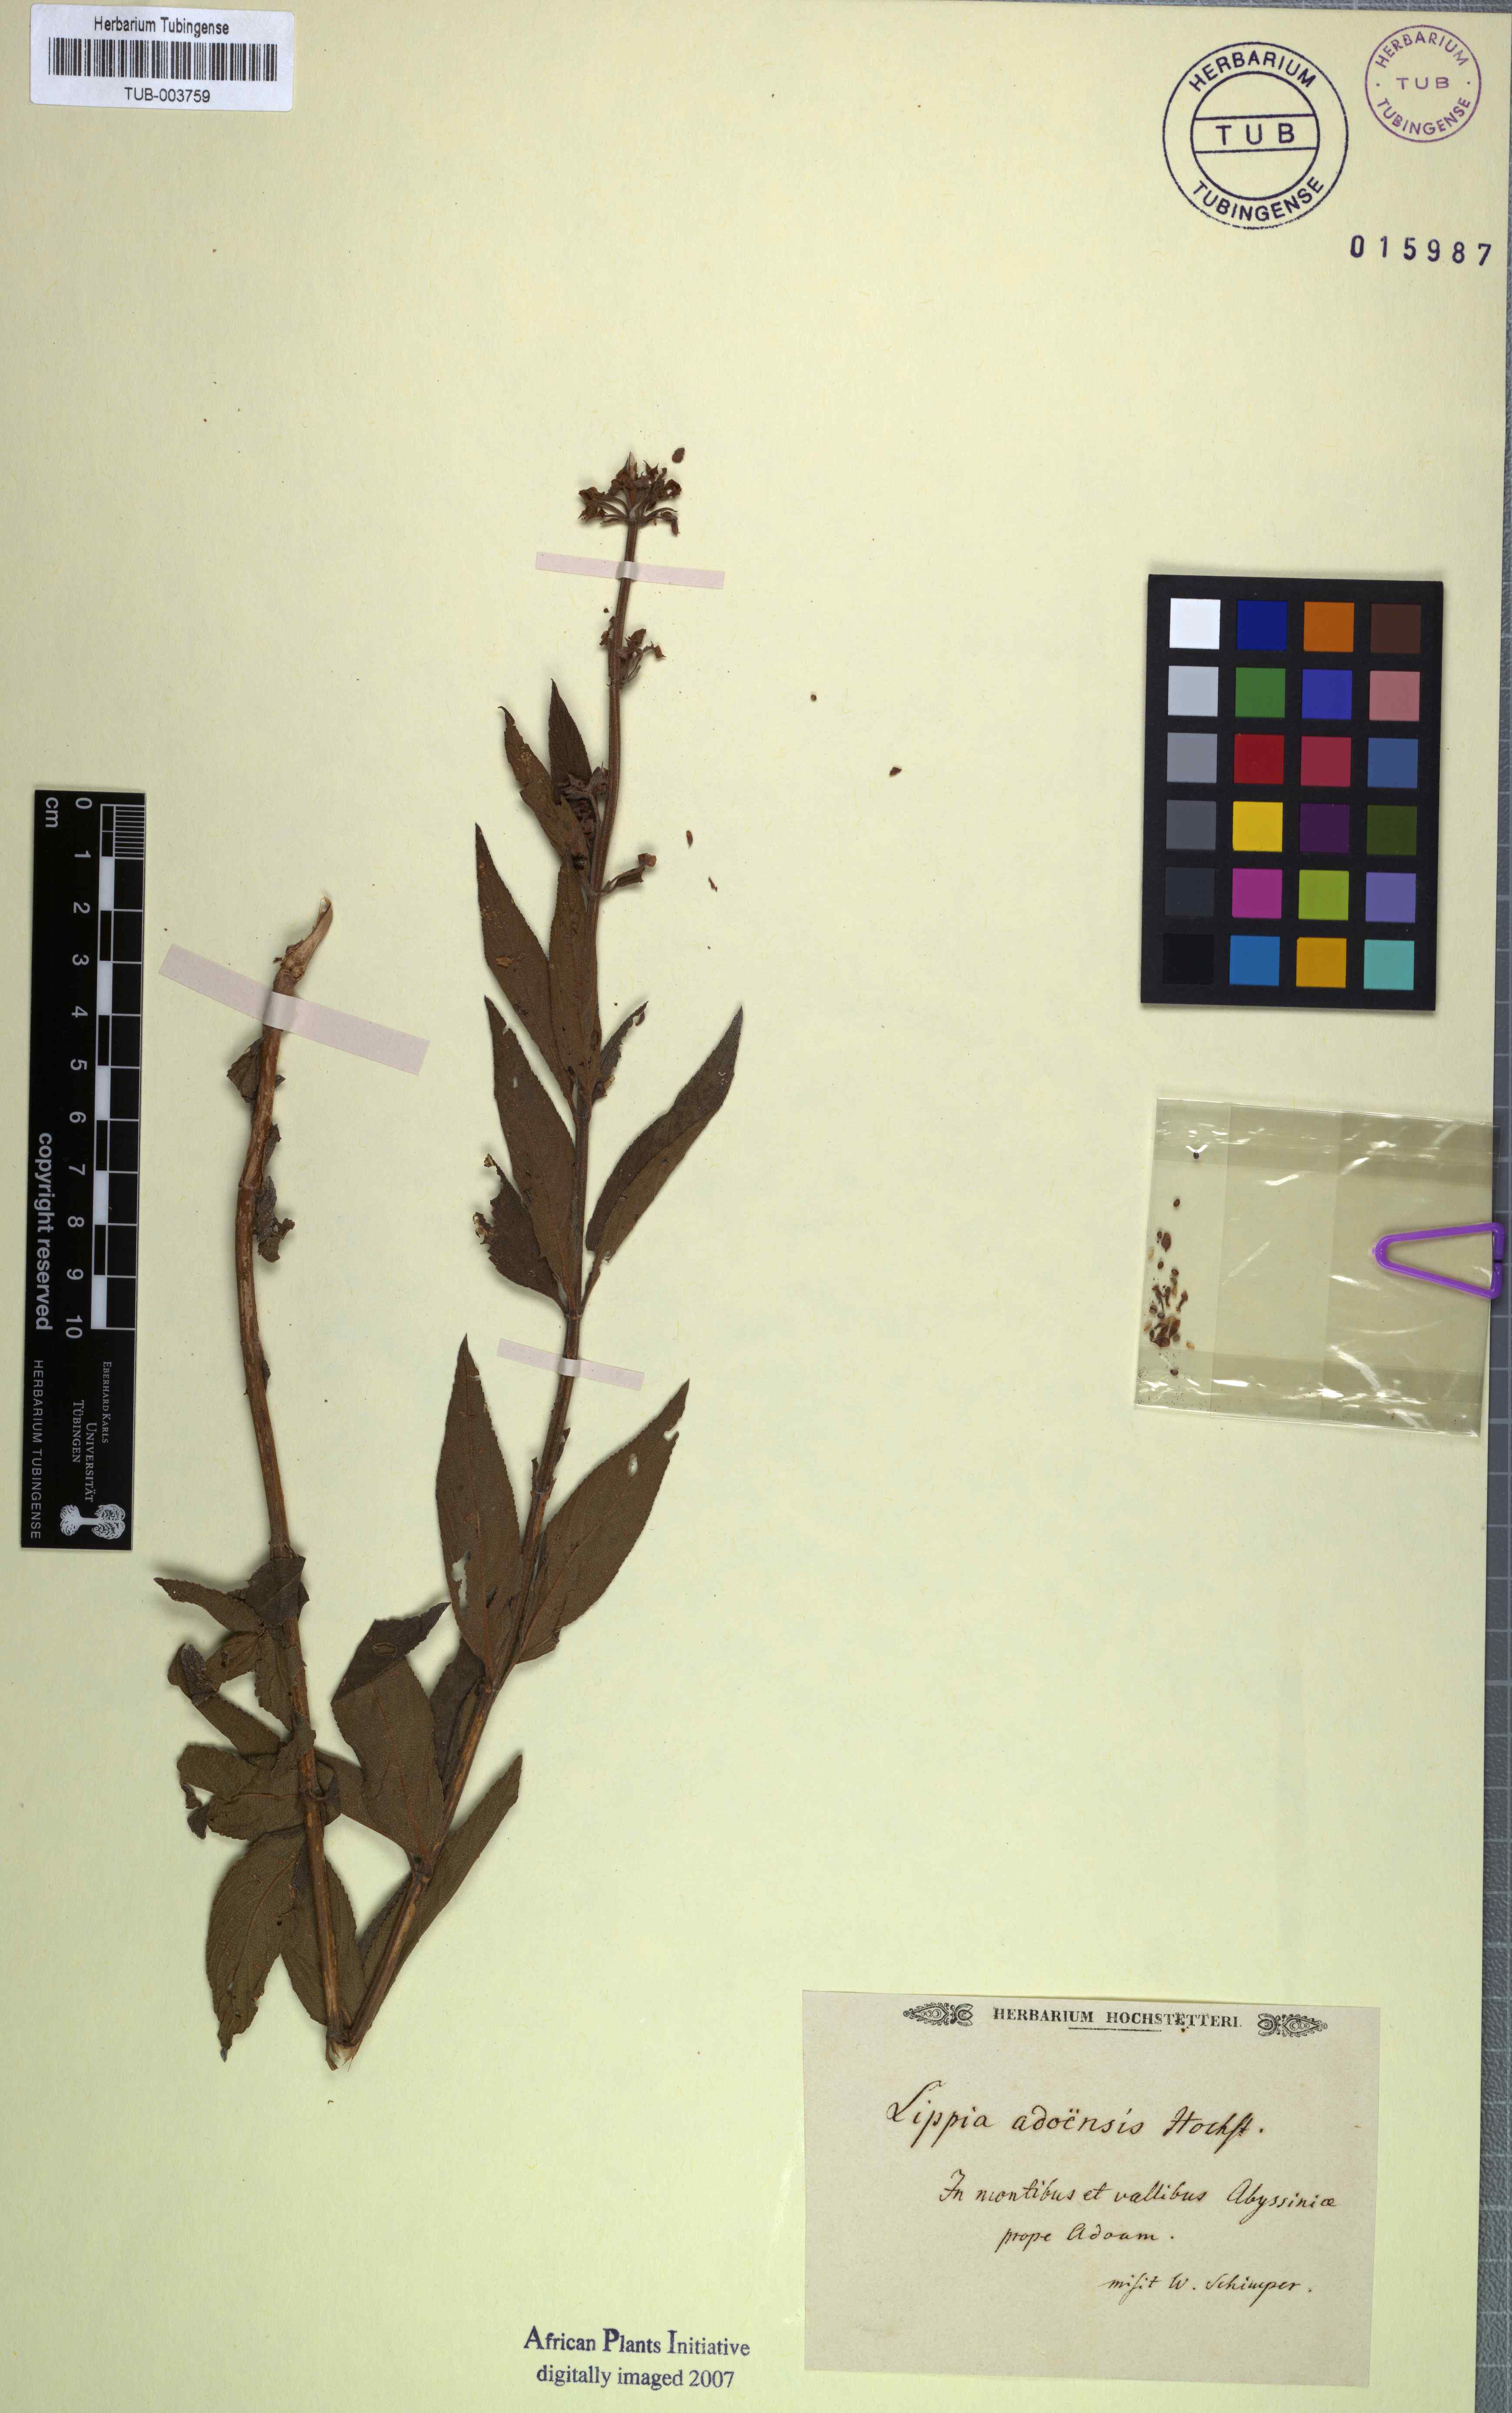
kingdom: Plantae
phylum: Tracheophyta
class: Magnoliopsida
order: Lamiales
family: Verbenaceae
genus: Lippia
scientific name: Lippia abyssinica
